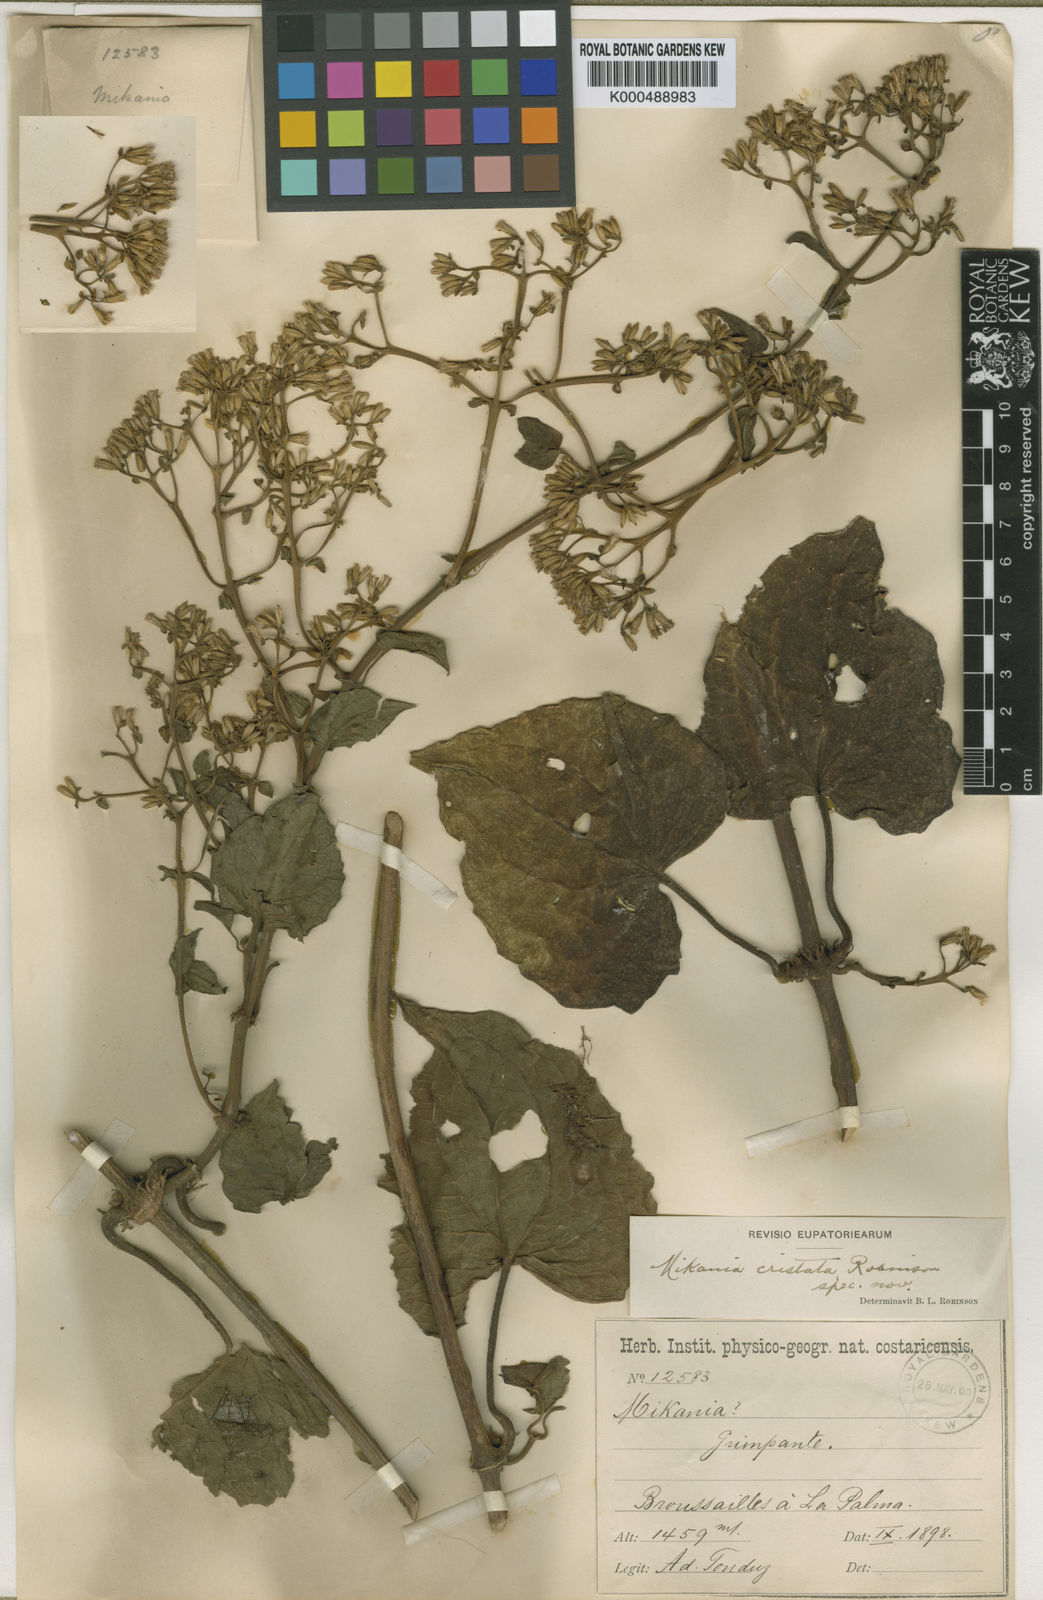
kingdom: Plantae
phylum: Tracheophyta
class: Magnoliopsida
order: Asterales
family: Asteraceae
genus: Mikania
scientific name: Mikania cristata
